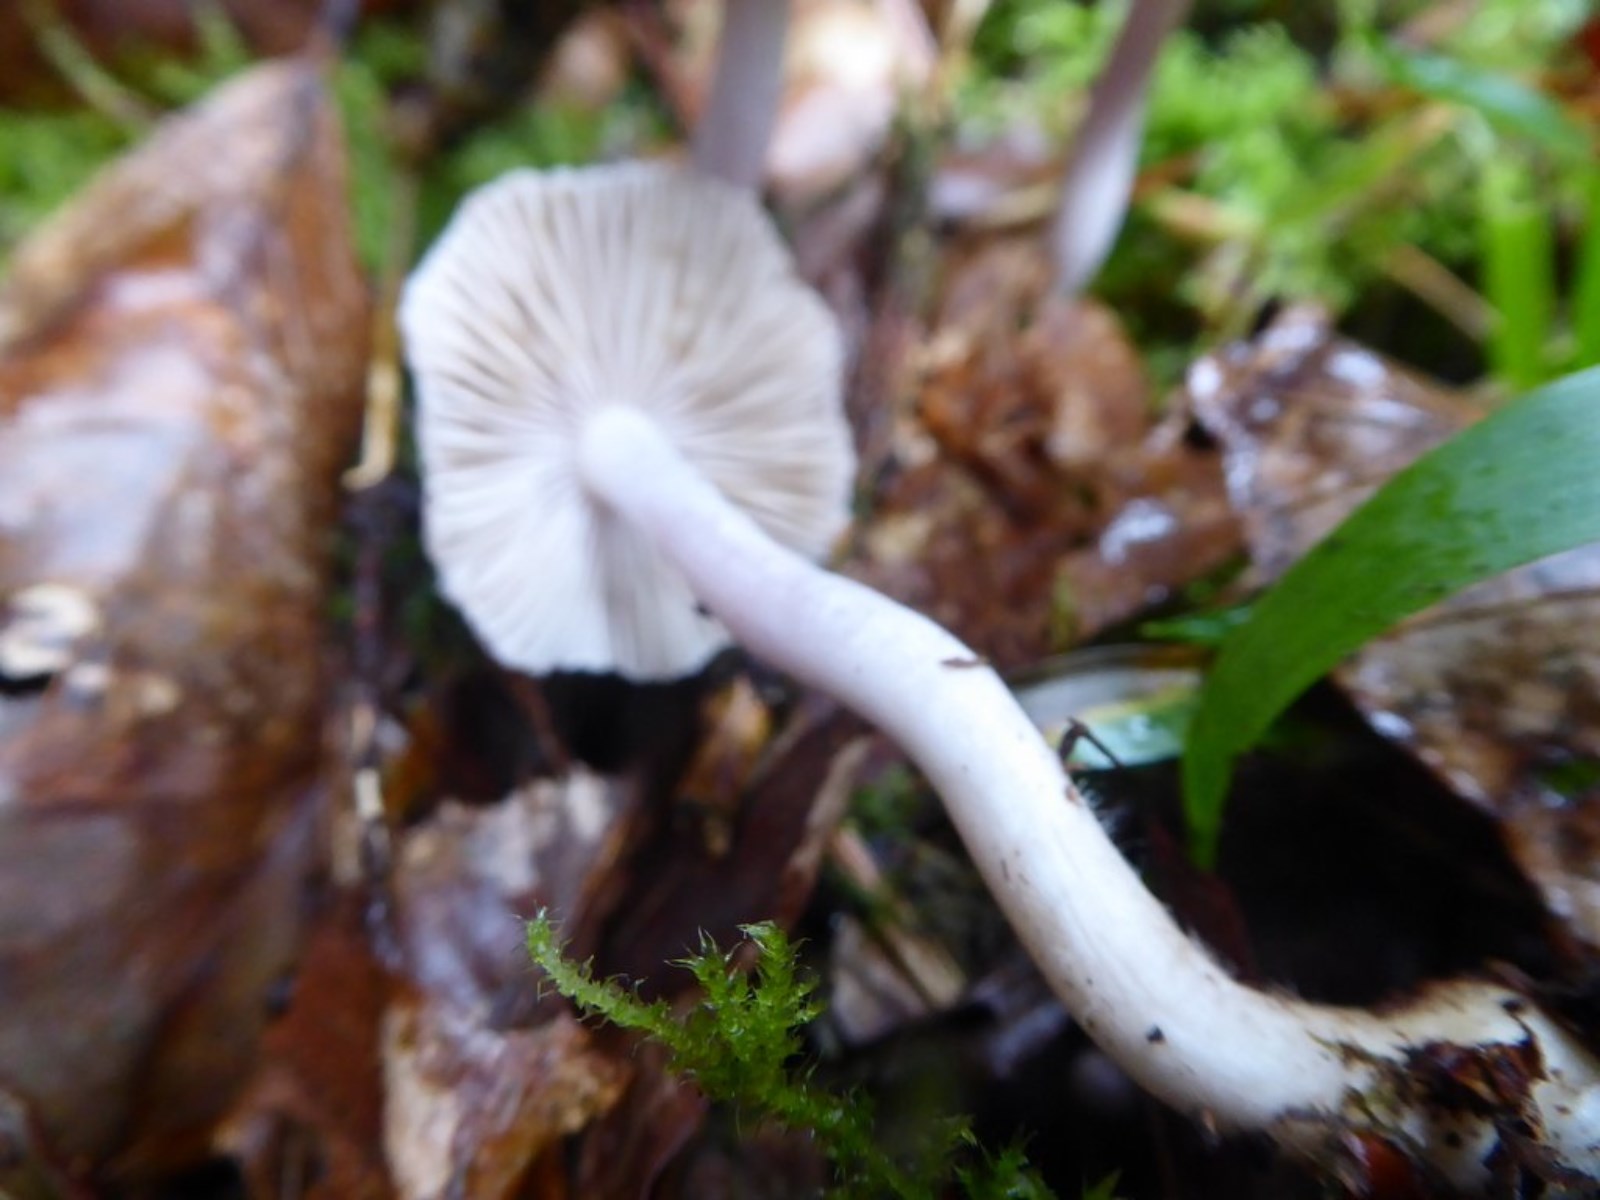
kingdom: Fungi
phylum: Basidiomycota
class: Agaricomycetes
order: Agaricales
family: Inocybaceae
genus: Inocybe
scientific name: Inocybe geophylla
